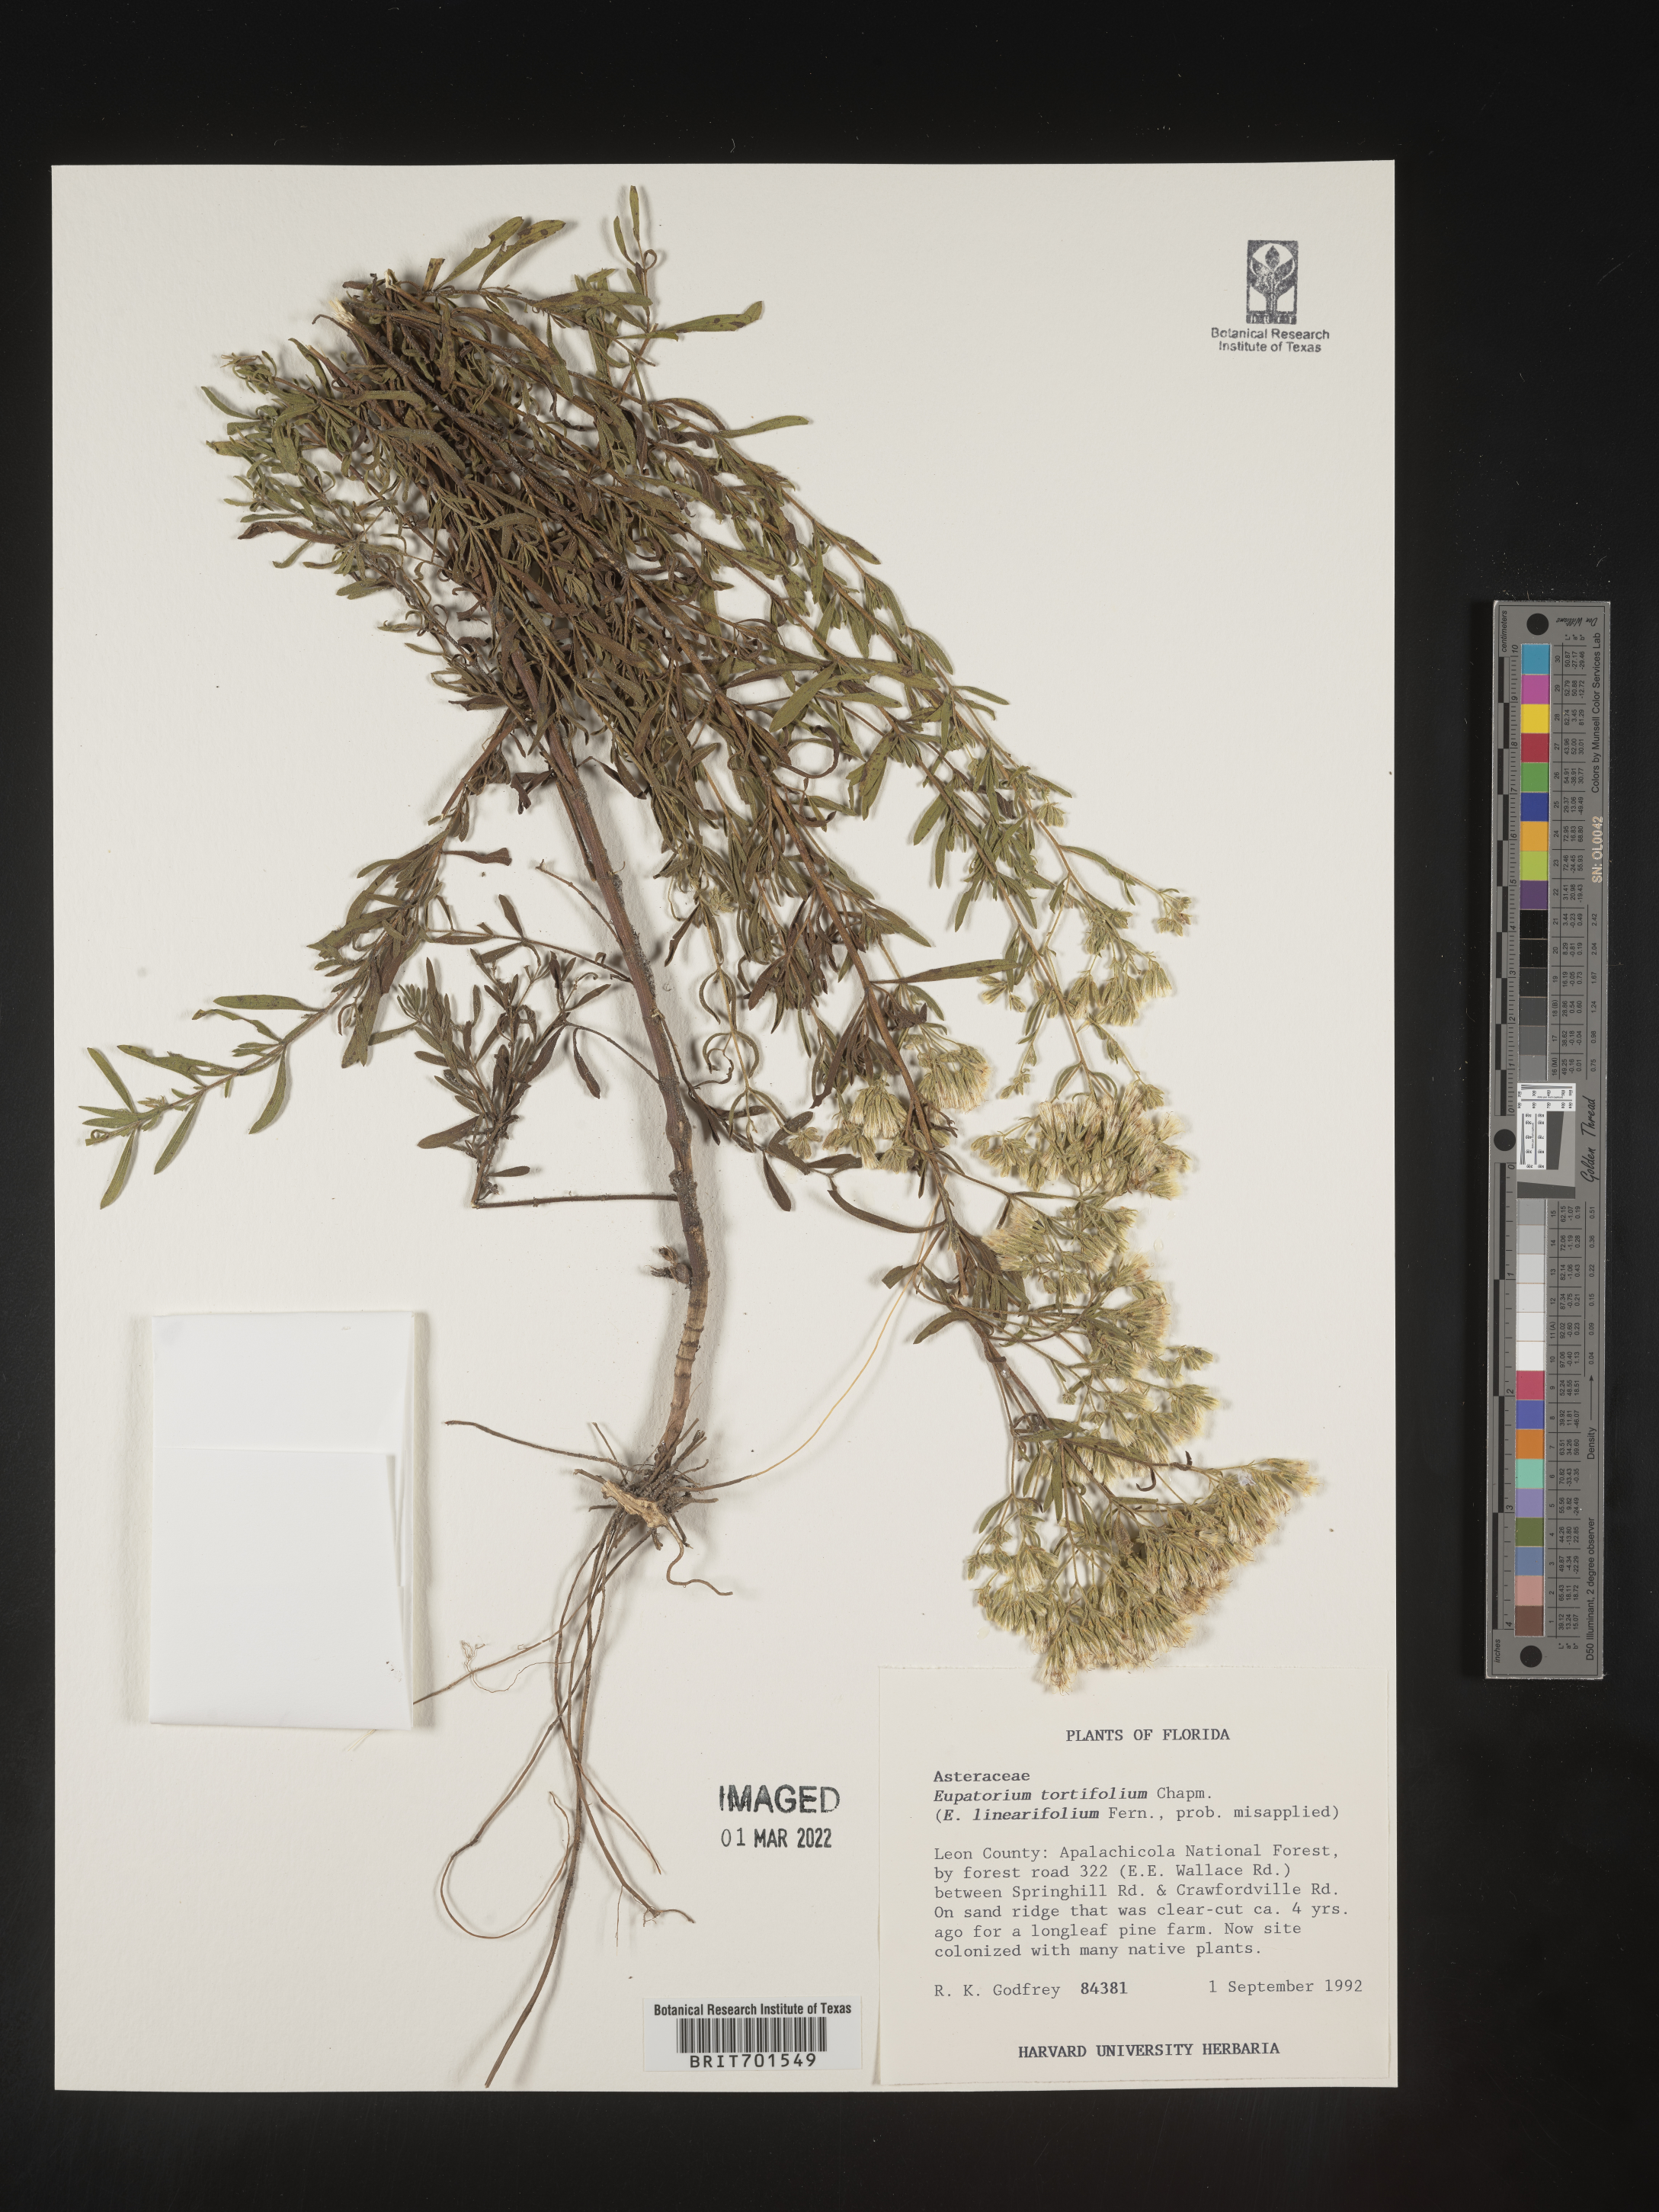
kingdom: Plantae
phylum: Tracheophyta
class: Magnoliopsida
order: Asterales
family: Asteraceae
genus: Eupatorium
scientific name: Eupatorium linearifolium
